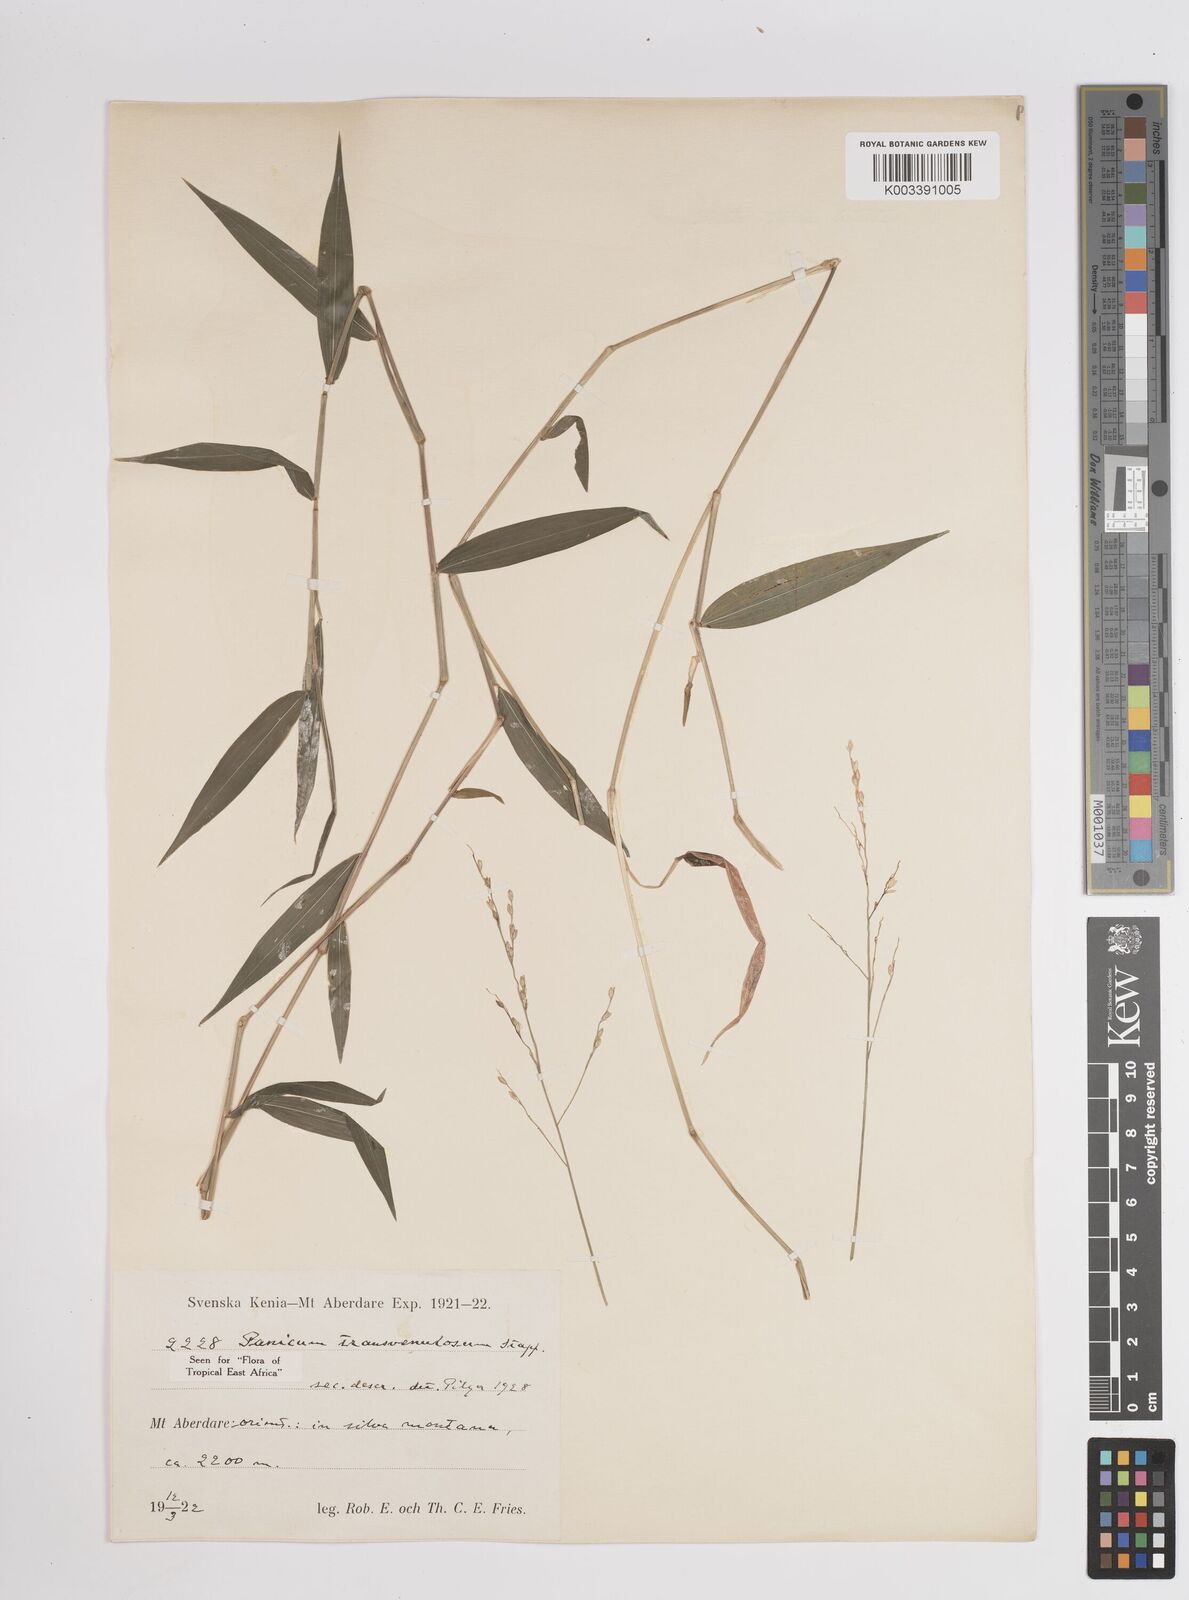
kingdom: Plantae
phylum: Tracheophyta
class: Liliopsida
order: Poales
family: Poaceae
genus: Panicum
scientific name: Panicum monticola
